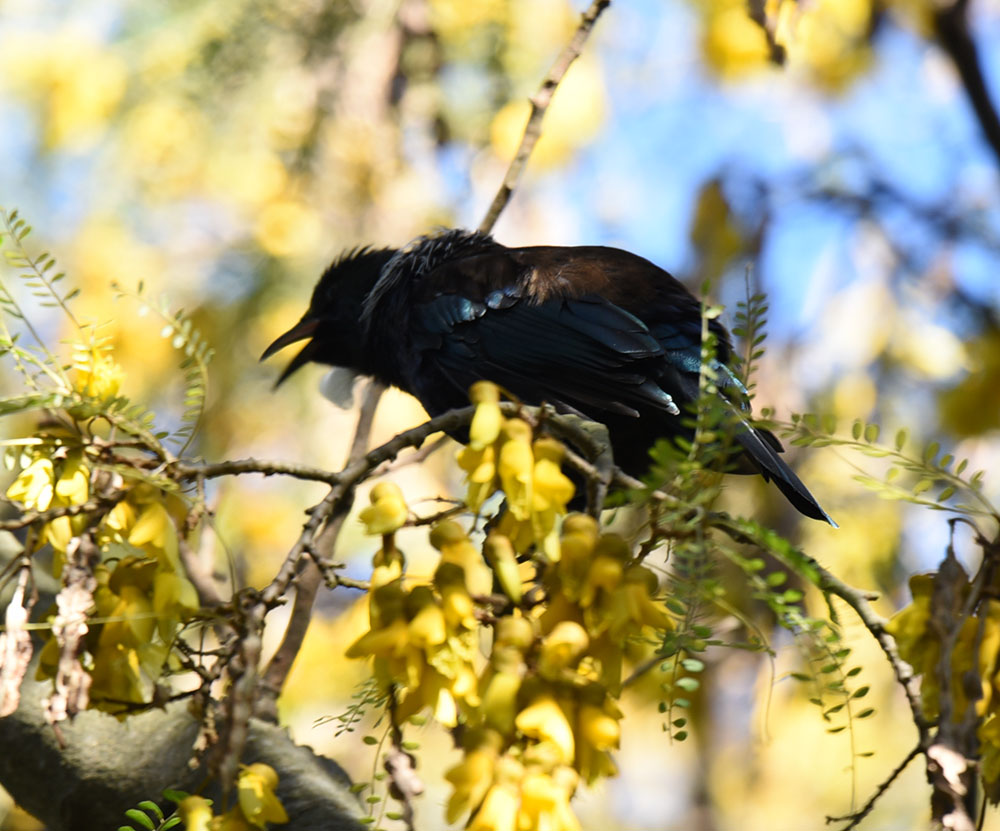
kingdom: Animalia
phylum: Chordata
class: Aves
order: Passeriformes
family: Meliphagidae
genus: Prosthemadera
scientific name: Prosthemadera novaeseelandiae
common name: Tui
